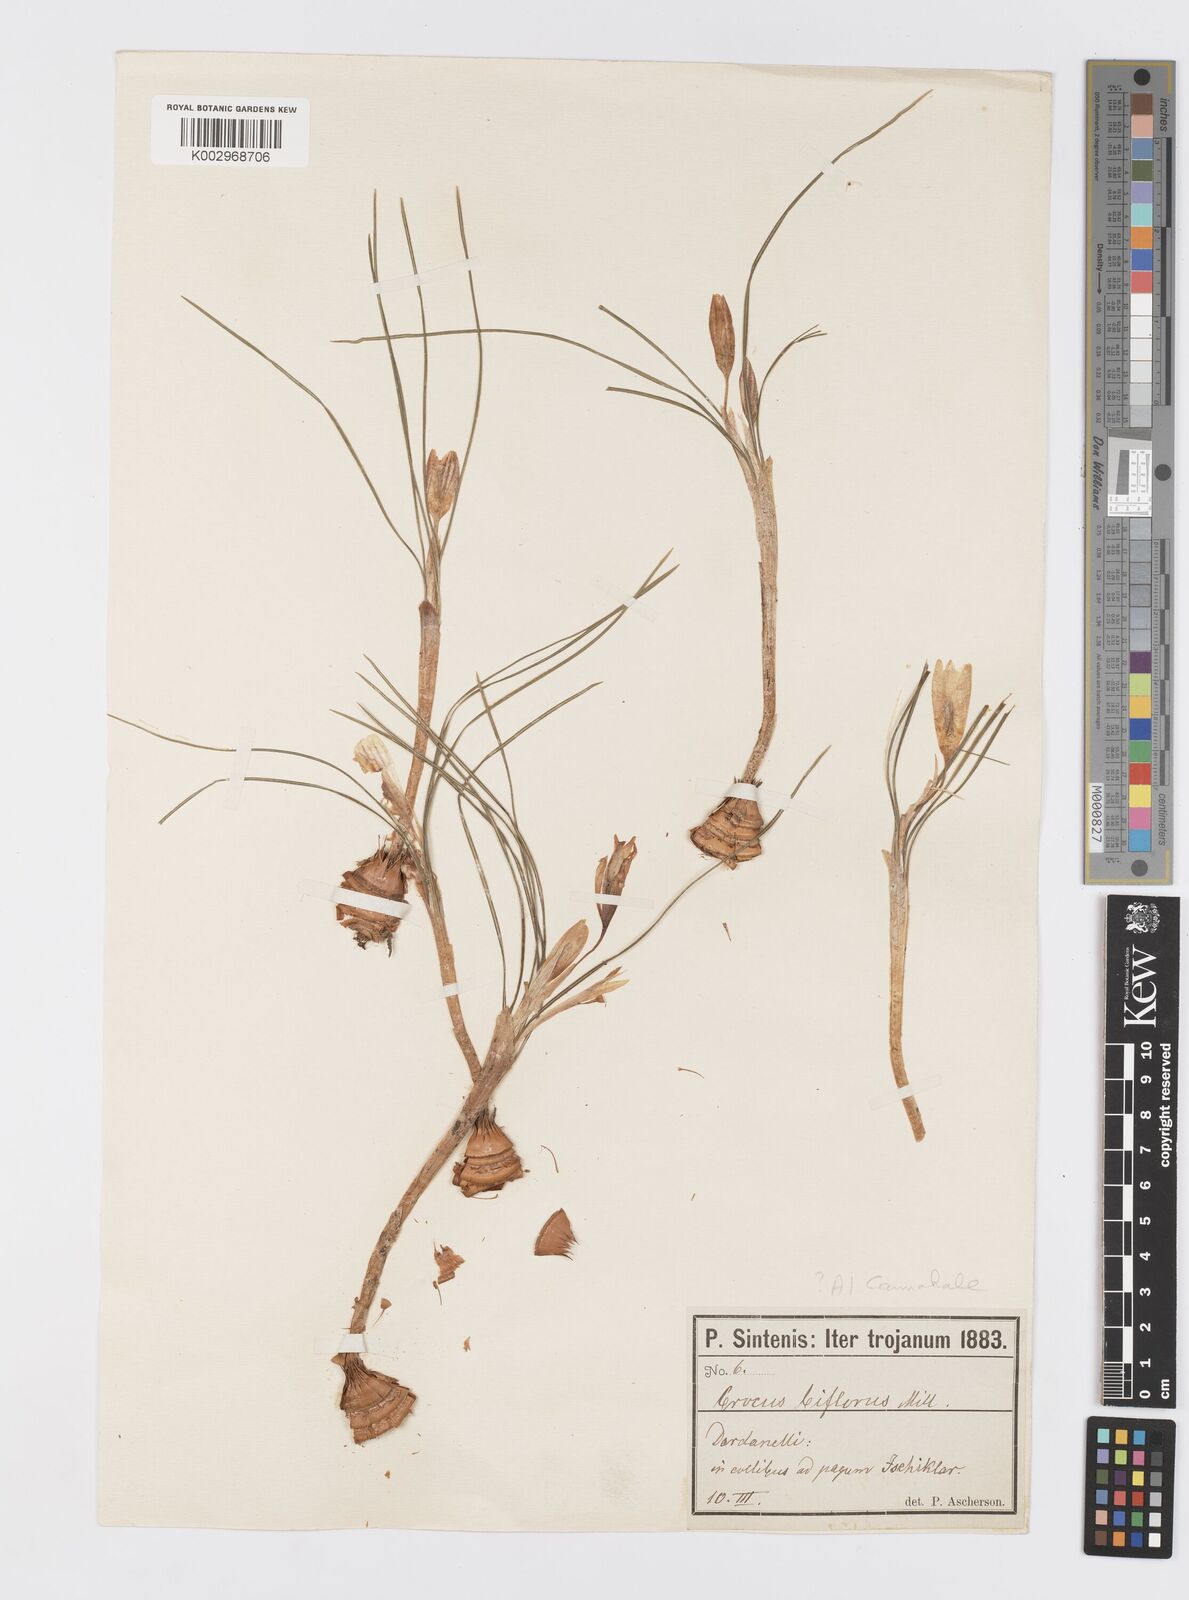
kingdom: Plantae
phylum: Tracheophyta
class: Liliopsida
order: Asparagales
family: Iridaceae
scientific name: Iridaceae
